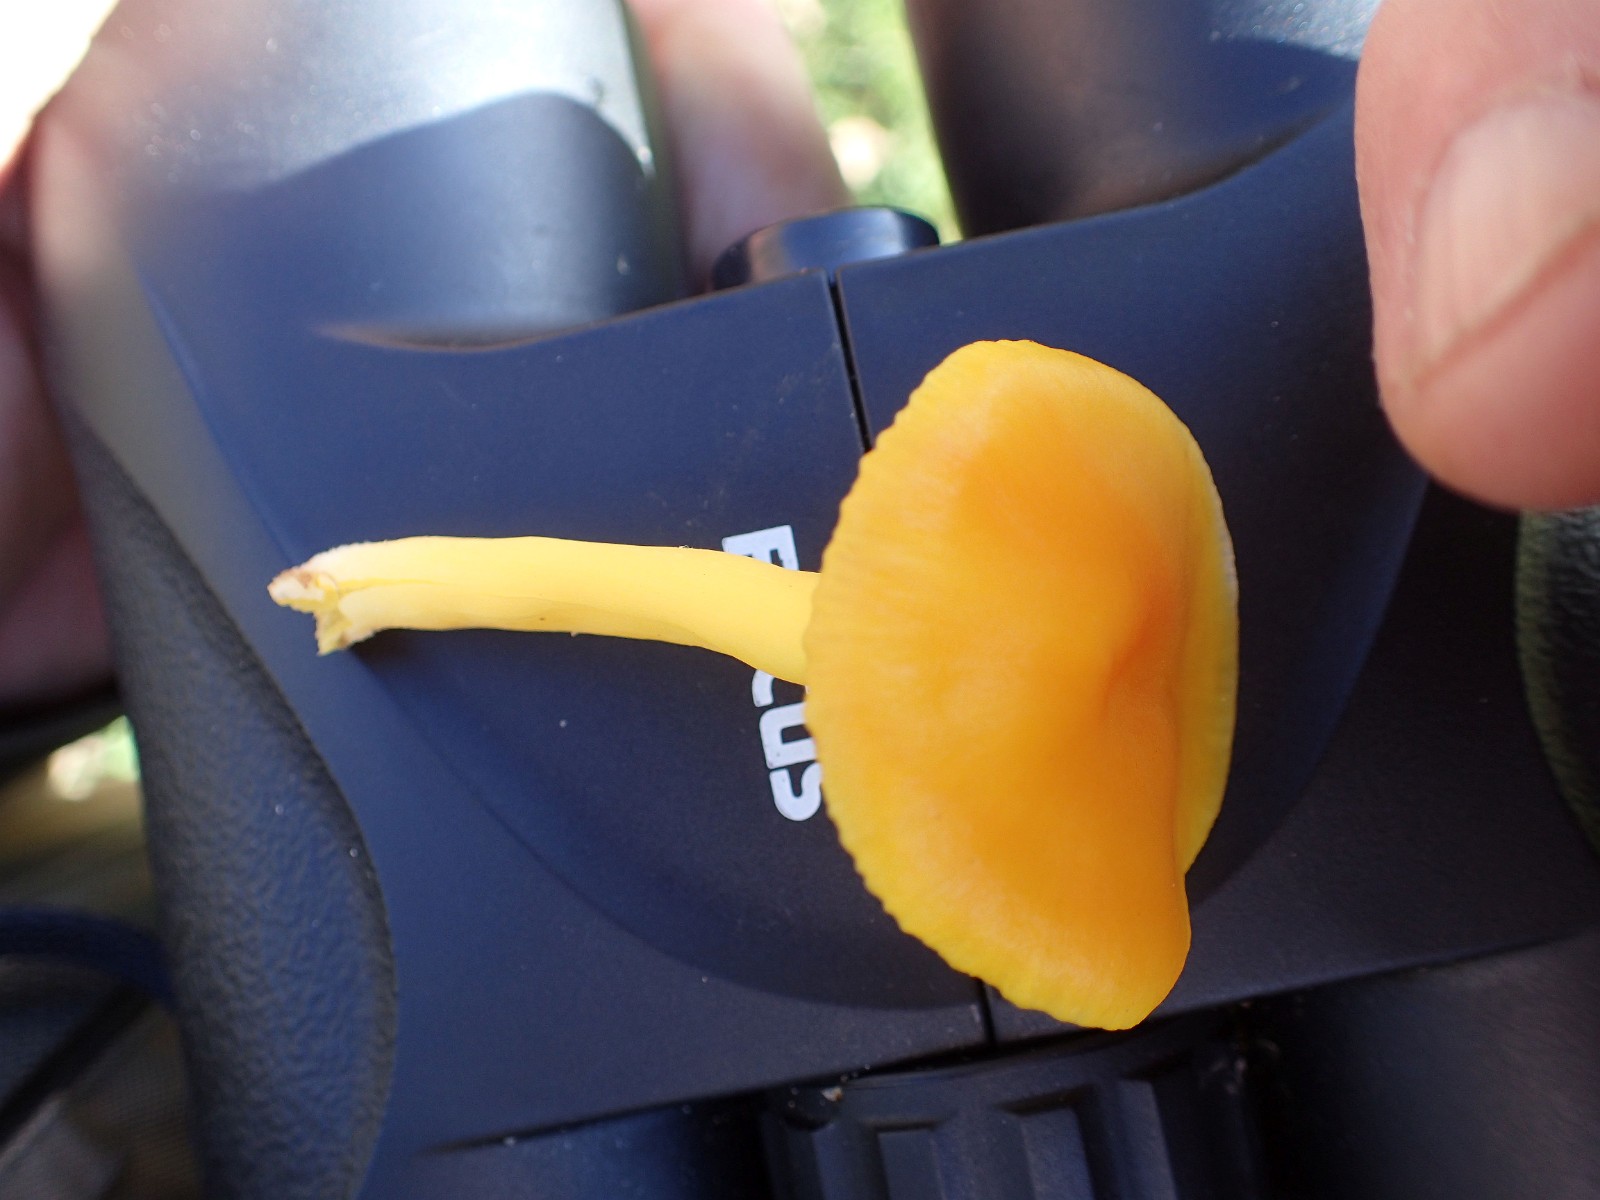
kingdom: Fungi
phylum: Basidiomycota
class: Agaricomycetes
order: Agaricales
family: Hygrophoraceae
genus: Hygrocybe
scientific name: Hygrocybe ceracea
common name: voksgul vokshat
